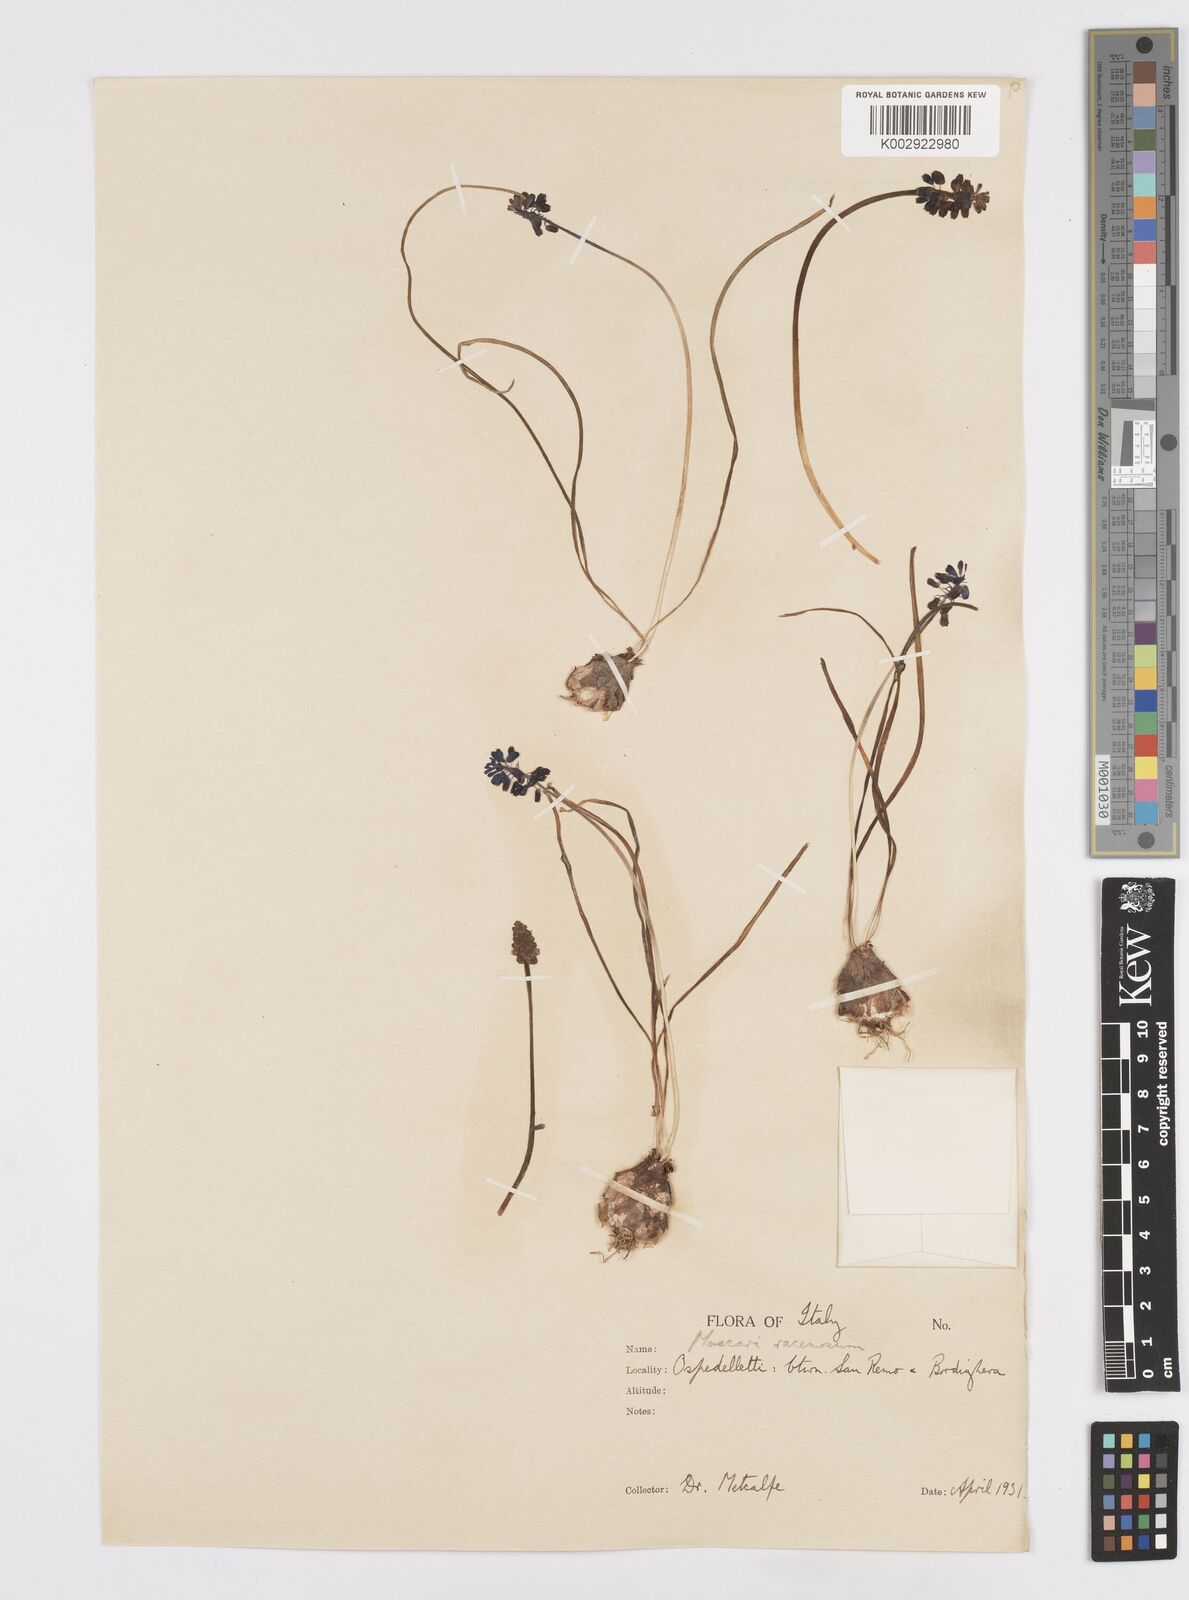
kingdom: Plantae
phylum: Tracheophyta
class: Liliopsida
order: Asparagales
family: Asparagaceae
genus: Muscarimia
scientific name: Muscarimia muscari
